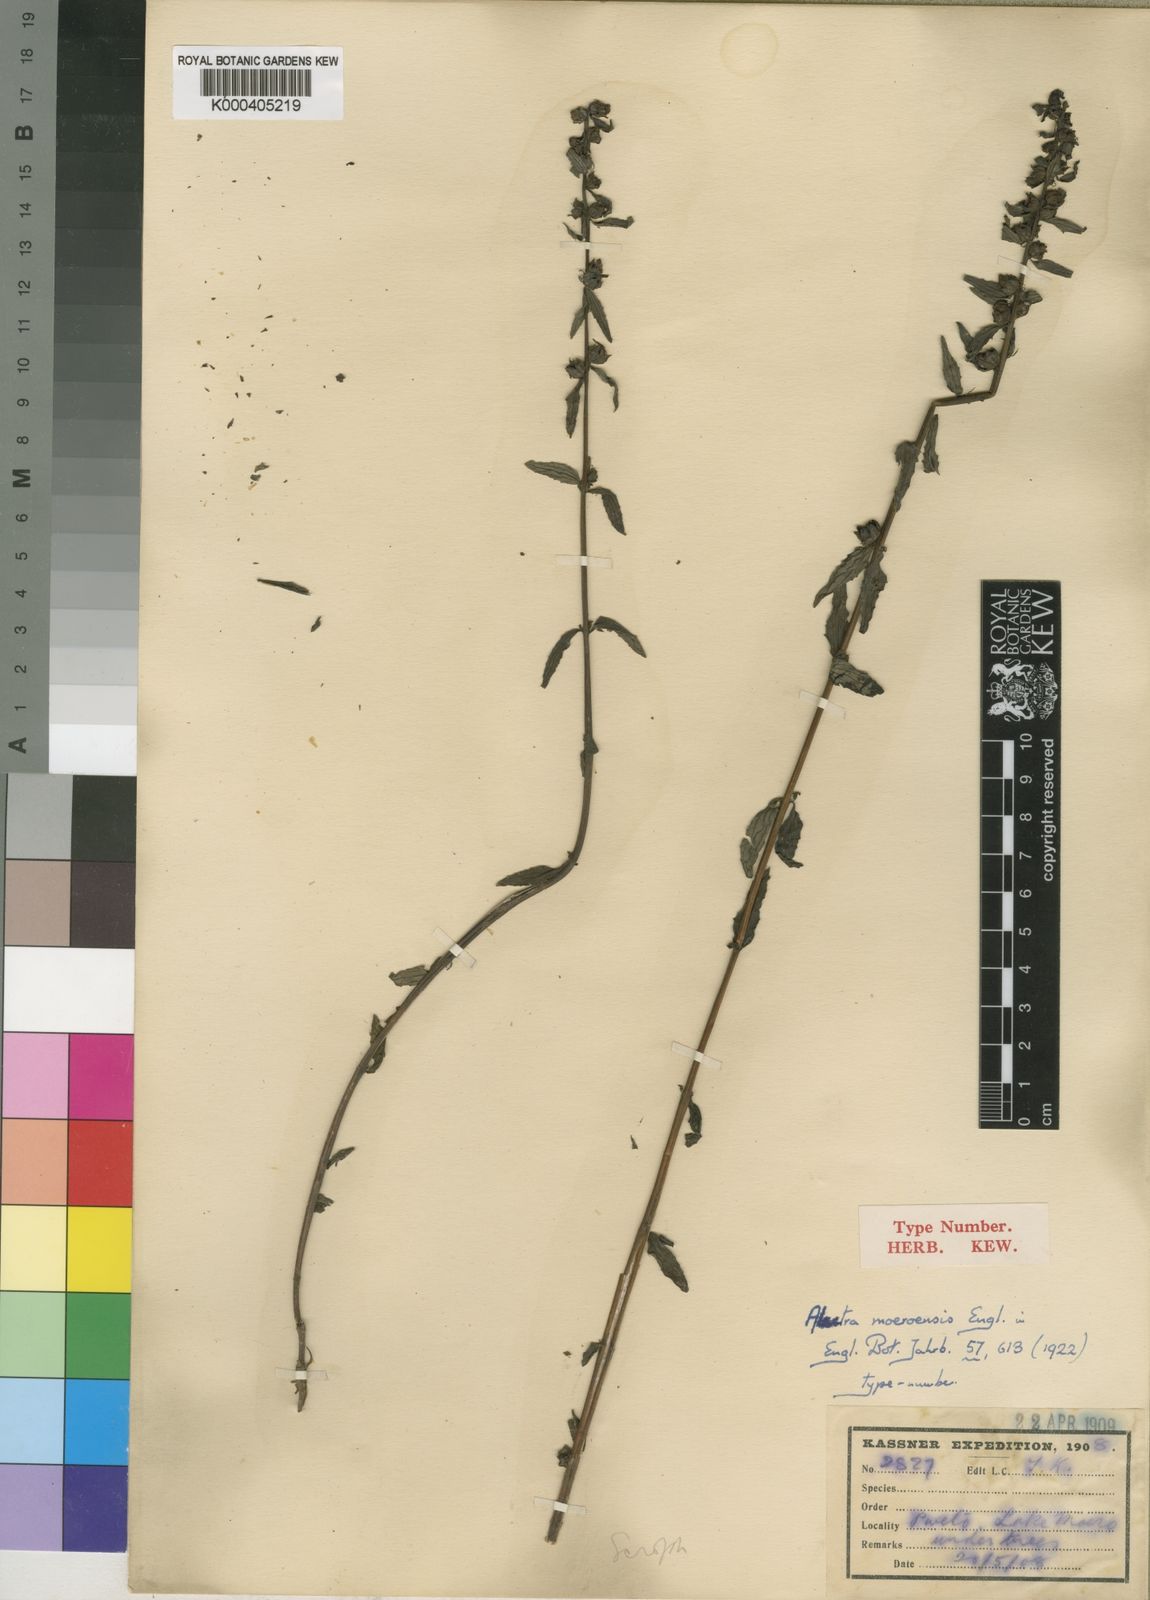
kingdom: Plantae
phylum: Tracheophyta
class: Magnoliopsida
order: Lamiales
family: Orobanchaceae
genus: Alectra
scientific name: Alectra sessiliflora
